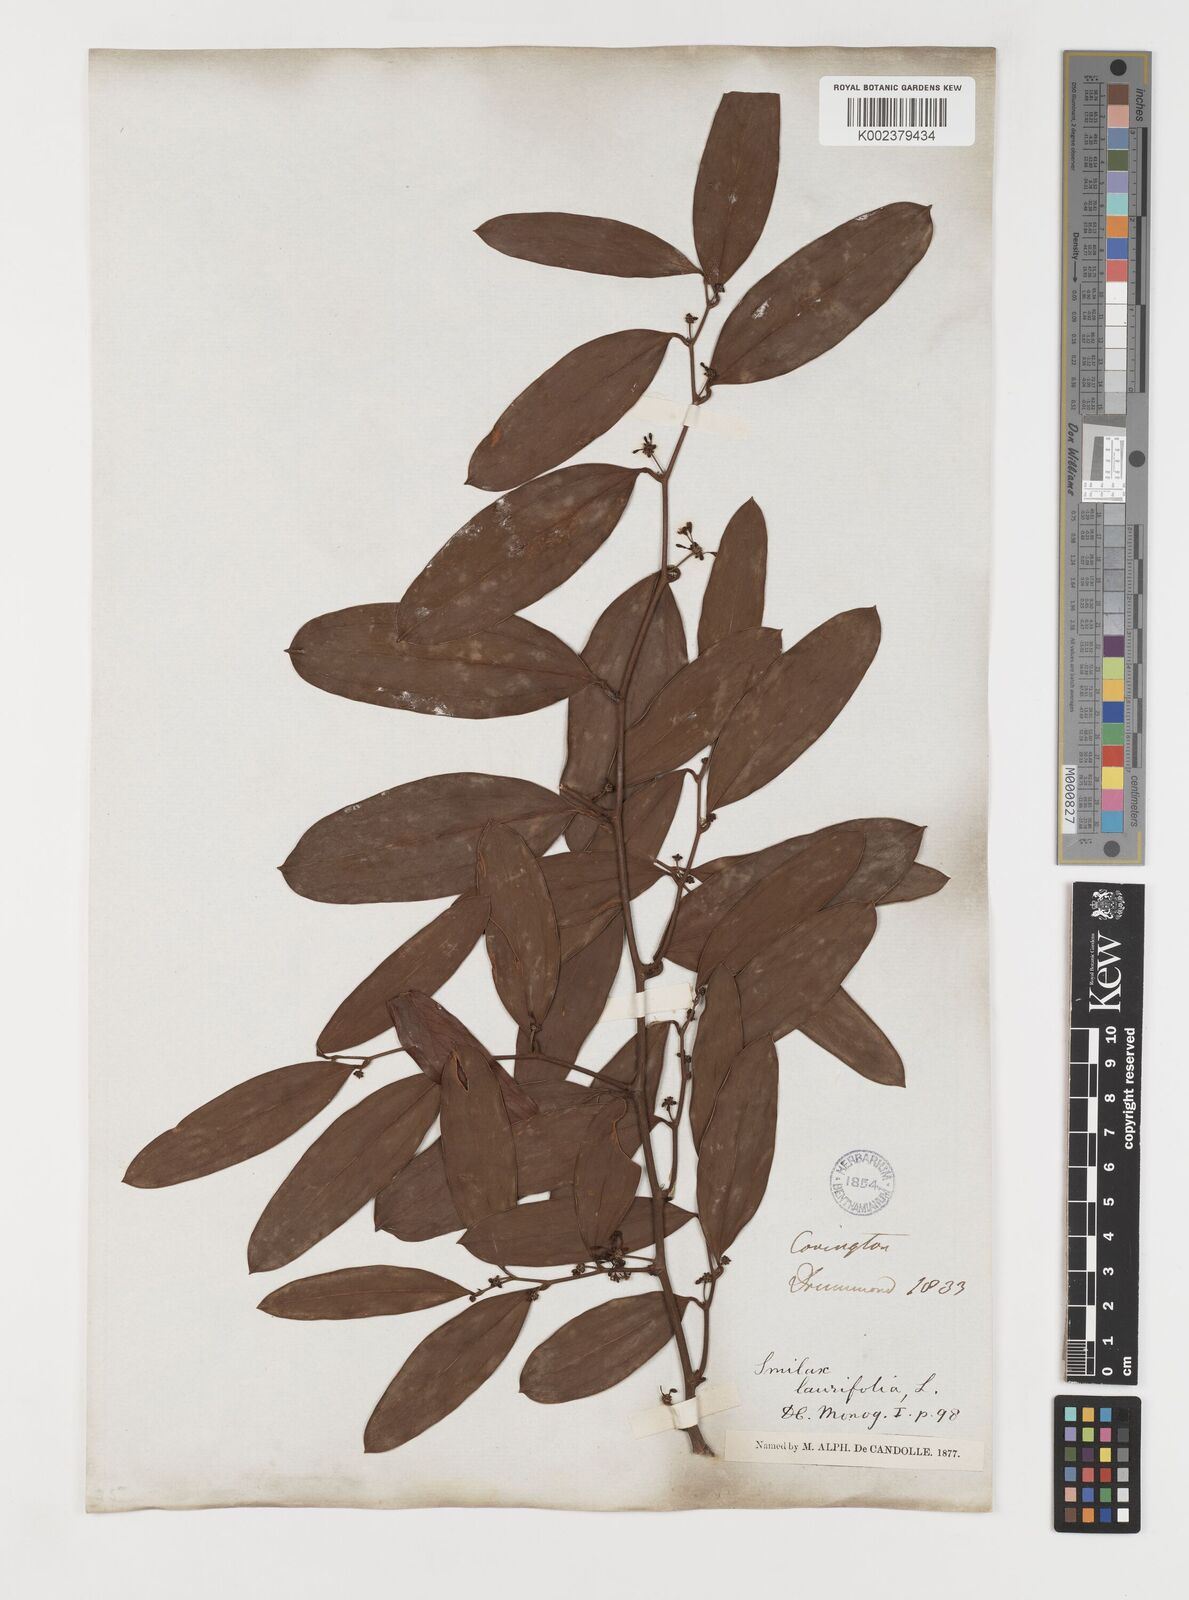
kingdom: Plantae
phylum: Tracheophyta
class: Liliopsida
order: Liliales
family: Smilacaceae
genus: Smilax
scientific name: Smilax laurifolia
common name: Bamboovine
